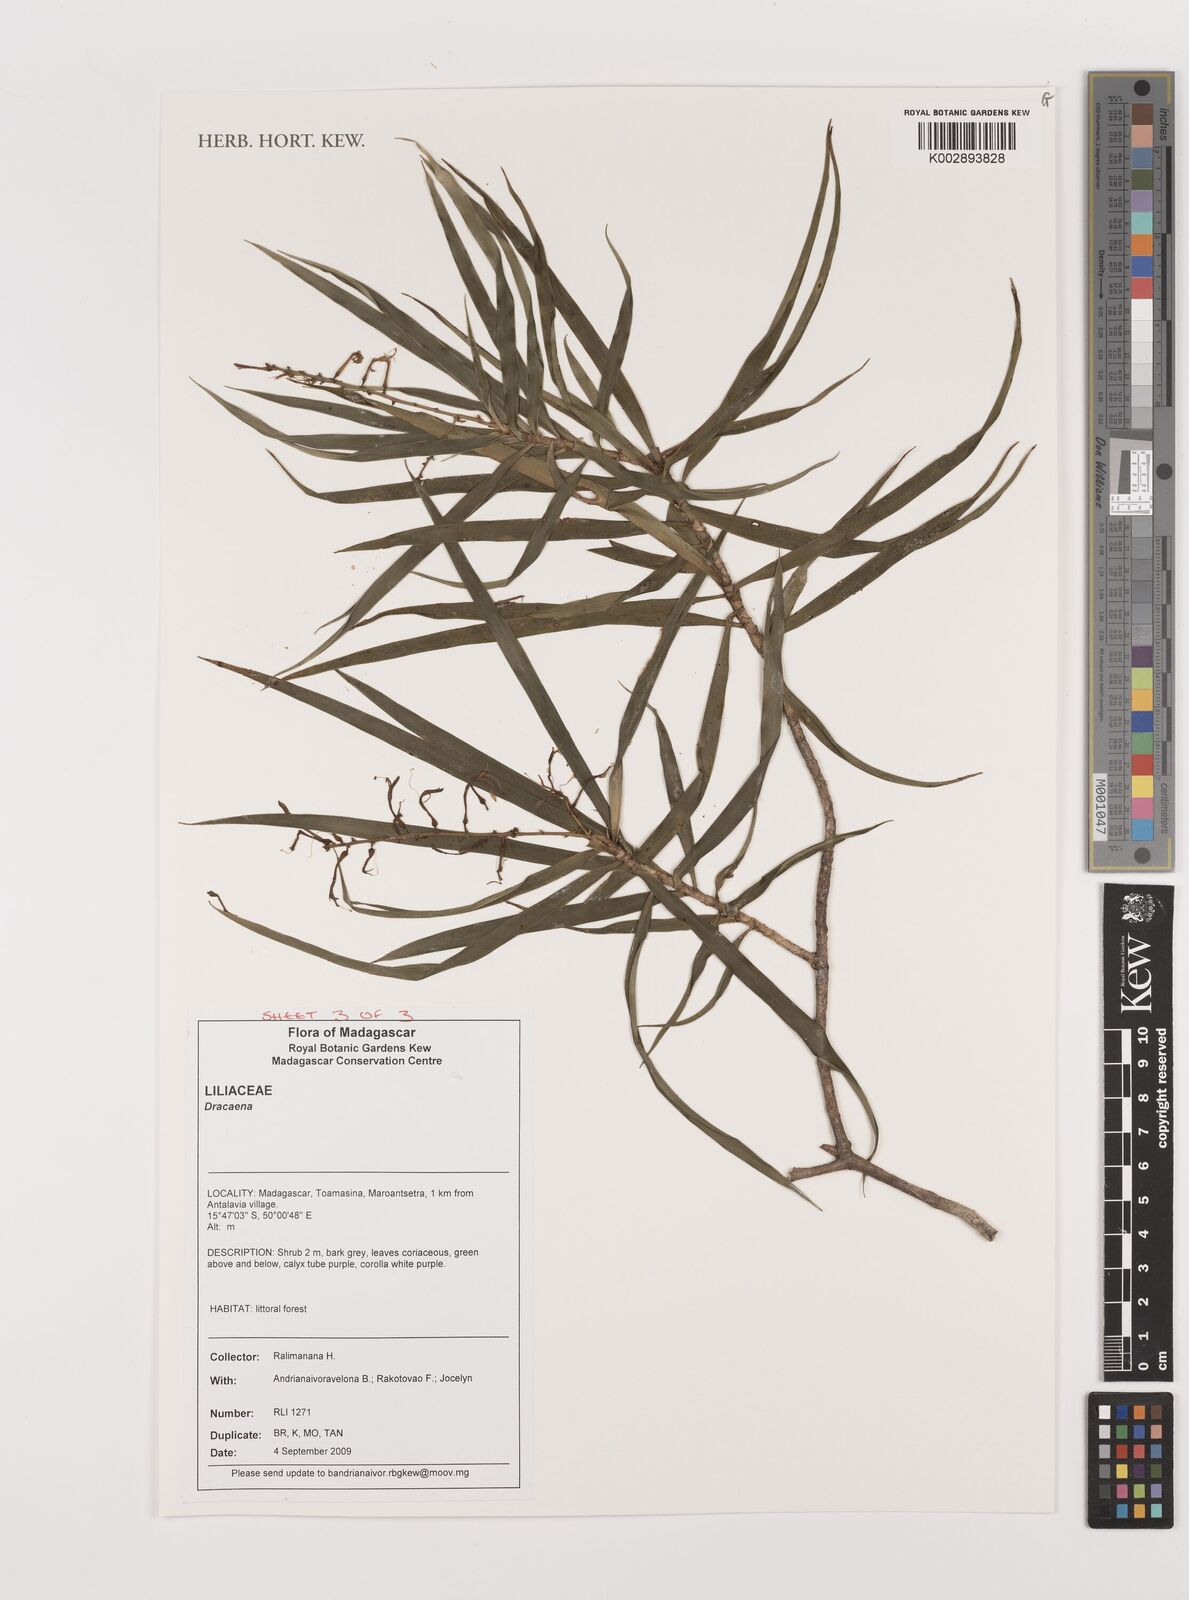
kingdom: Plantae
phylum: Tracheophyta
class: Liliopsida
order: Asparagales
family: Asparagaceae
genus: Dracaena
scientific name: Dracaena
